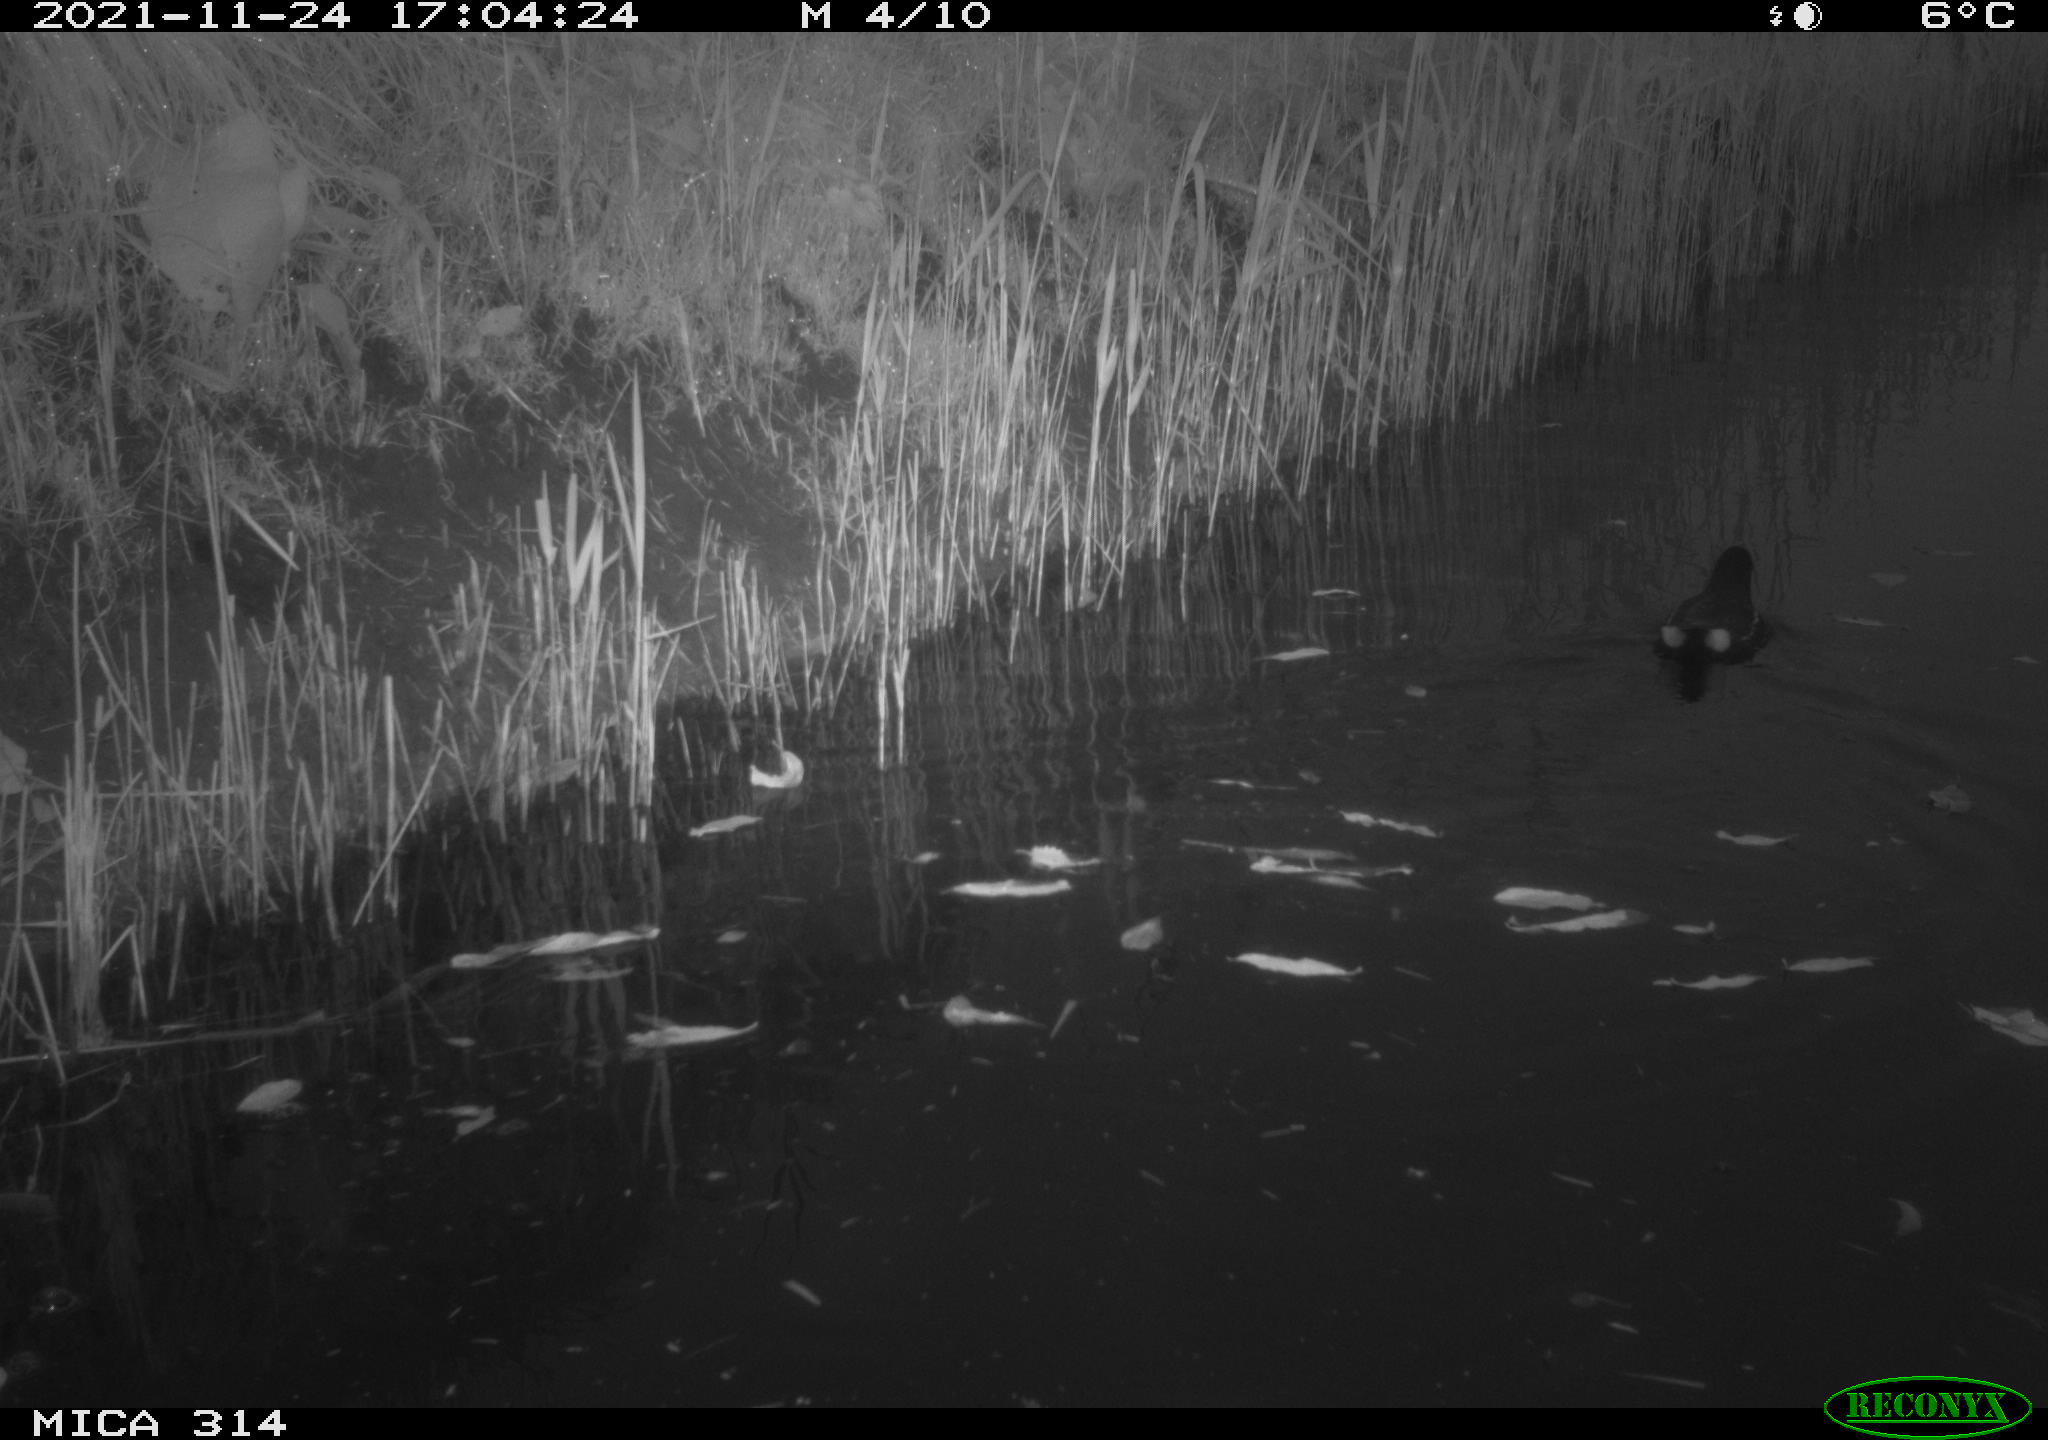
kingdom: Animalia
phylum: Chordata
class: Aves
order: Gruiformes
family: Rallidae
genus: Gallinula
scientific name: Gallinula chloropus
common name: Common moorhen
